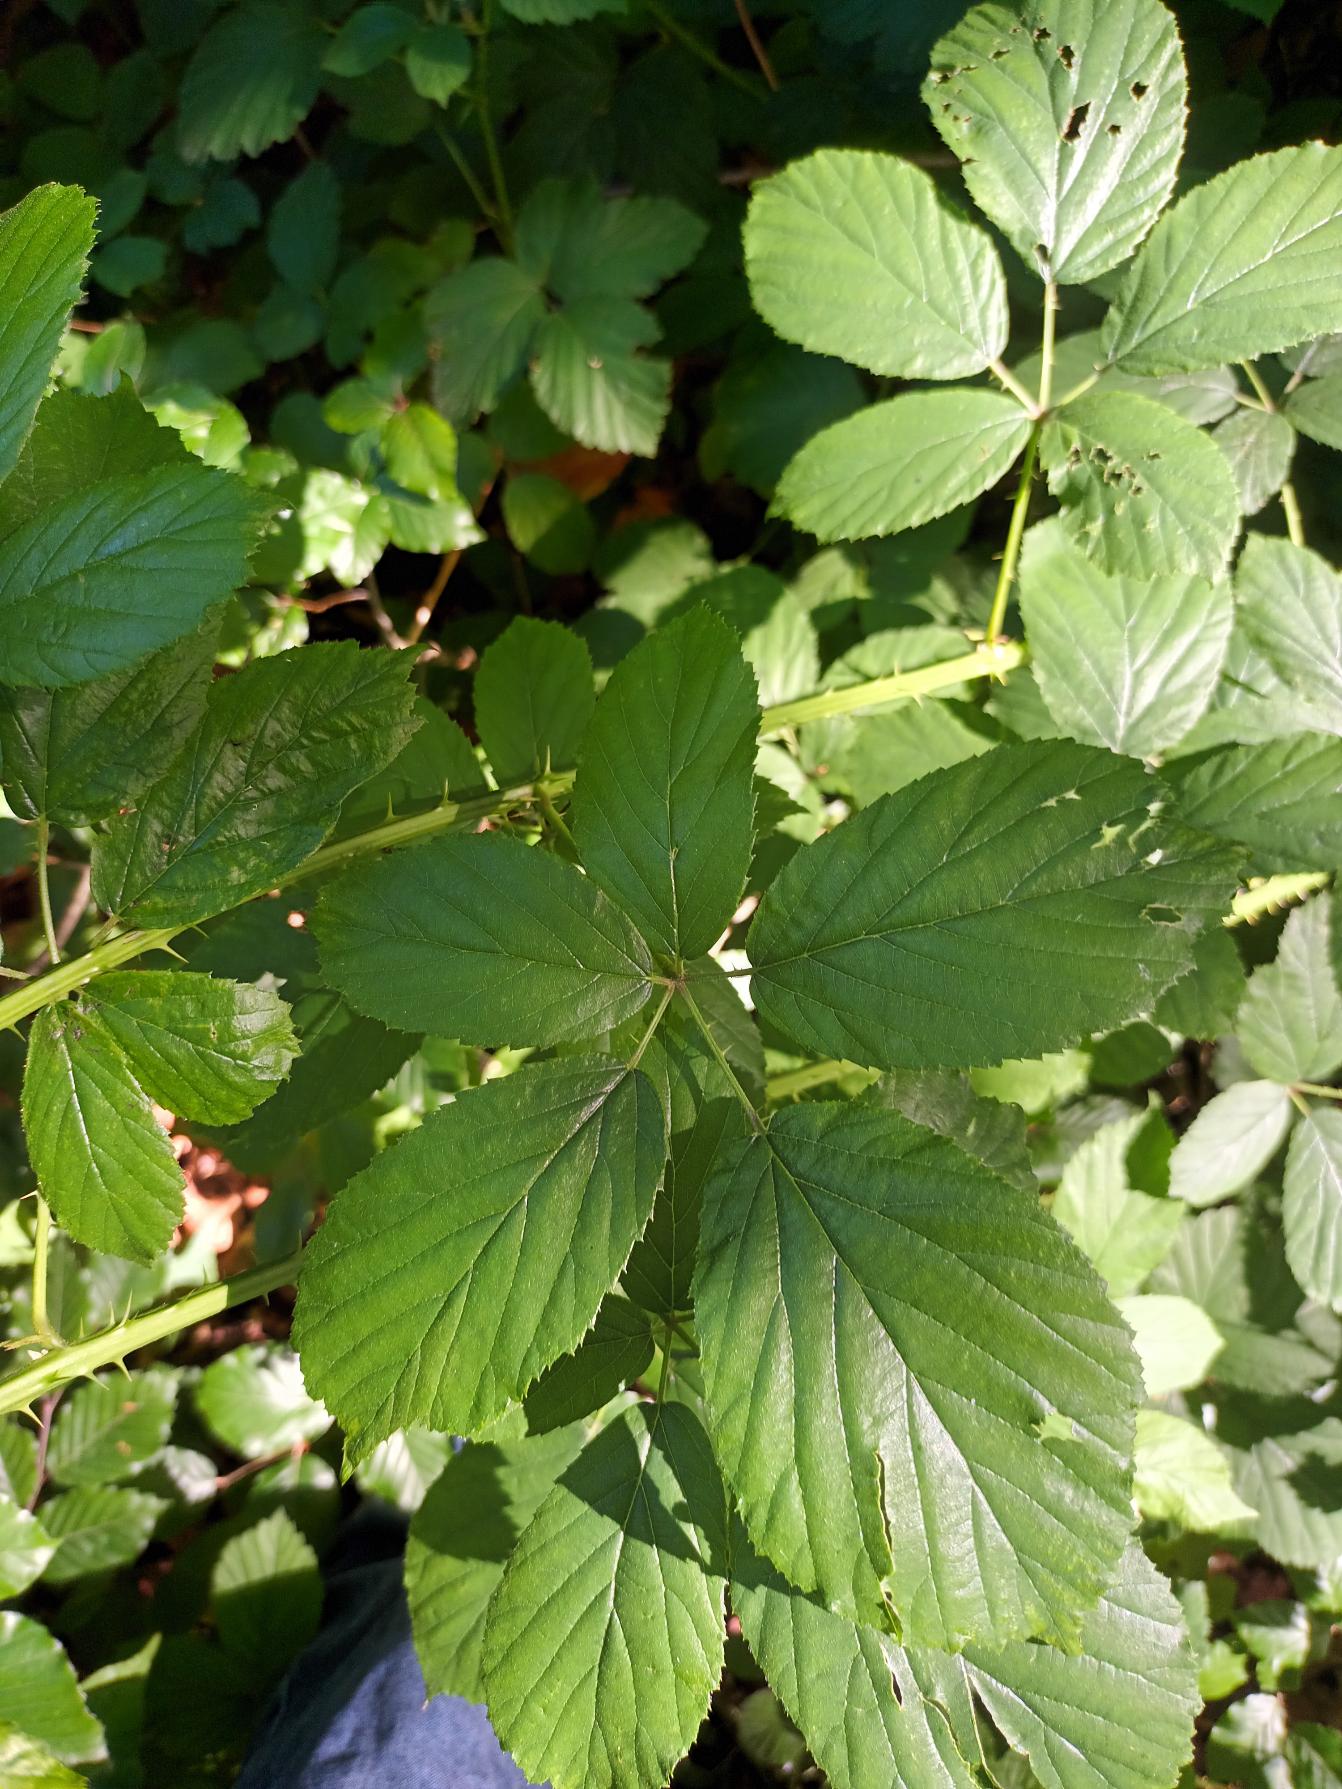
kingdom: Plantae
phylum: Tracheophyta
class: Magnoliopsida
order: Rosales
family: Rosaceae
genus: Rubus
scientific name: Rubus gelertii
